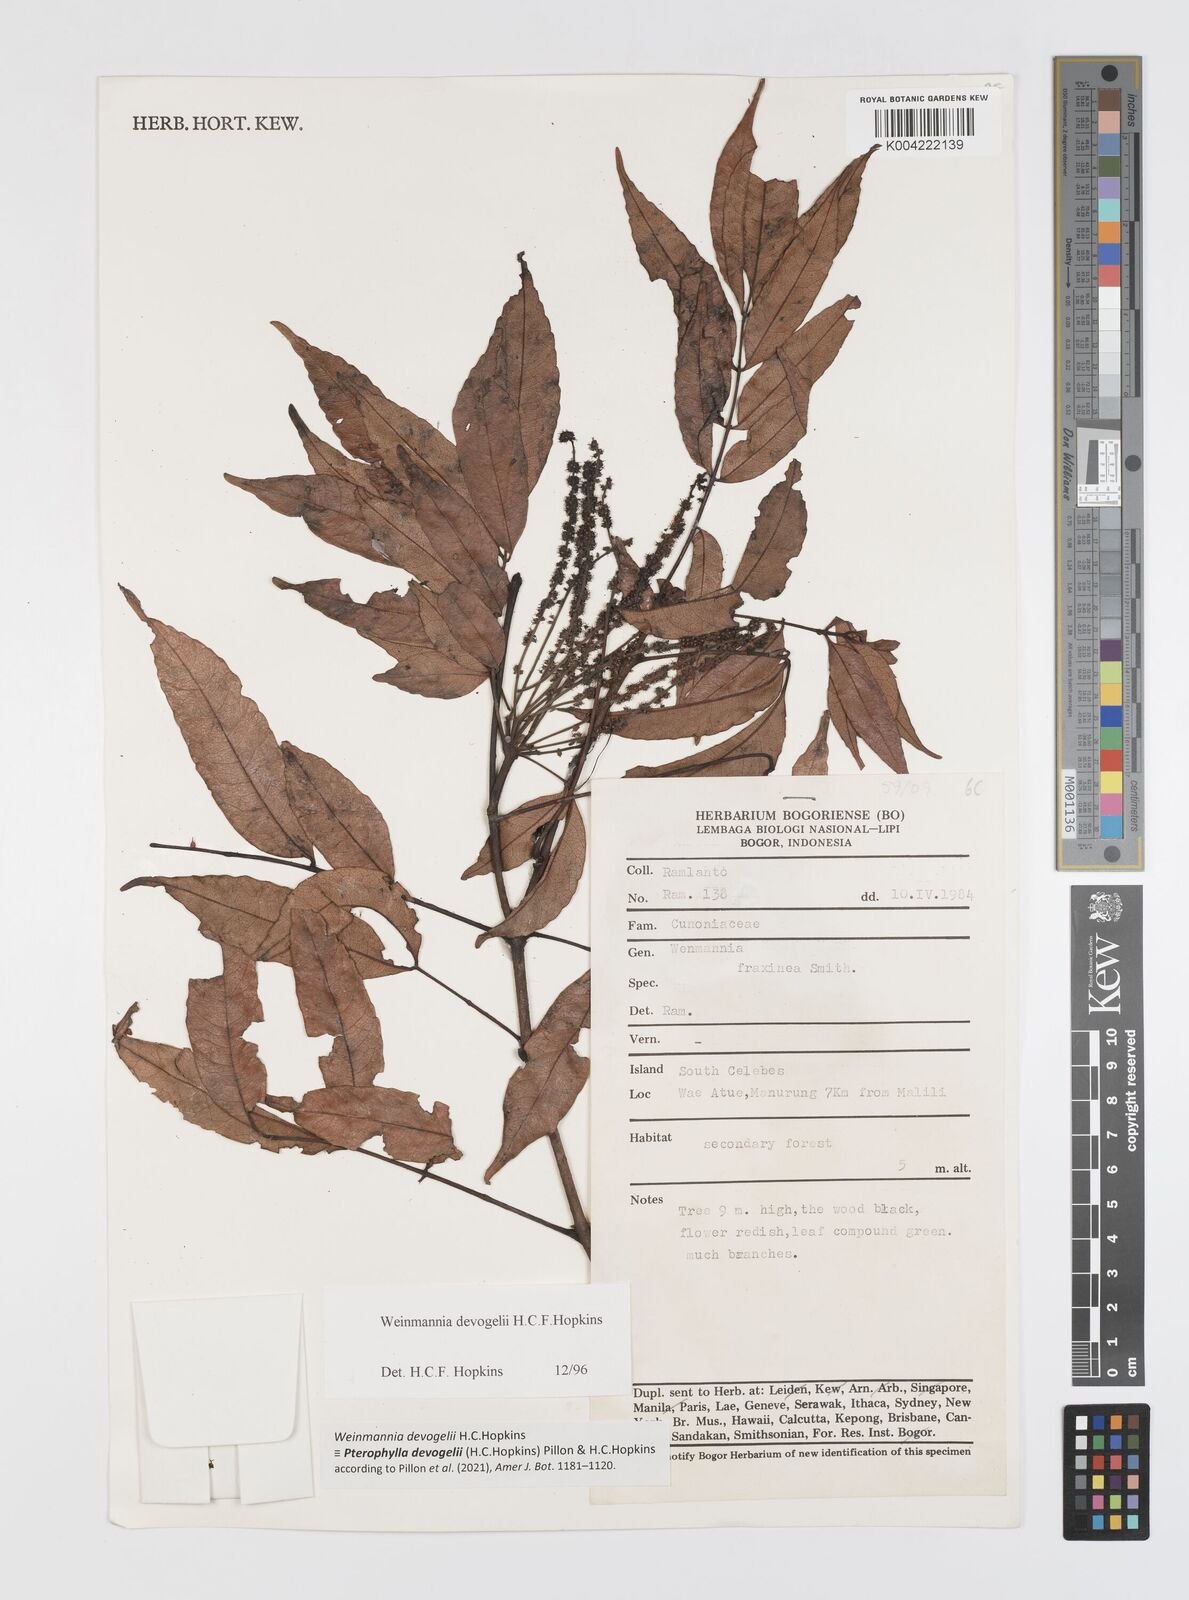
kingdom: Plantae
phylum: Tracheophyta
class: Magnoliopsida
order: Oxalidales
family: Cunoniaceae
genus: Pterophylla
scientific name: Pterophylla devogelii
